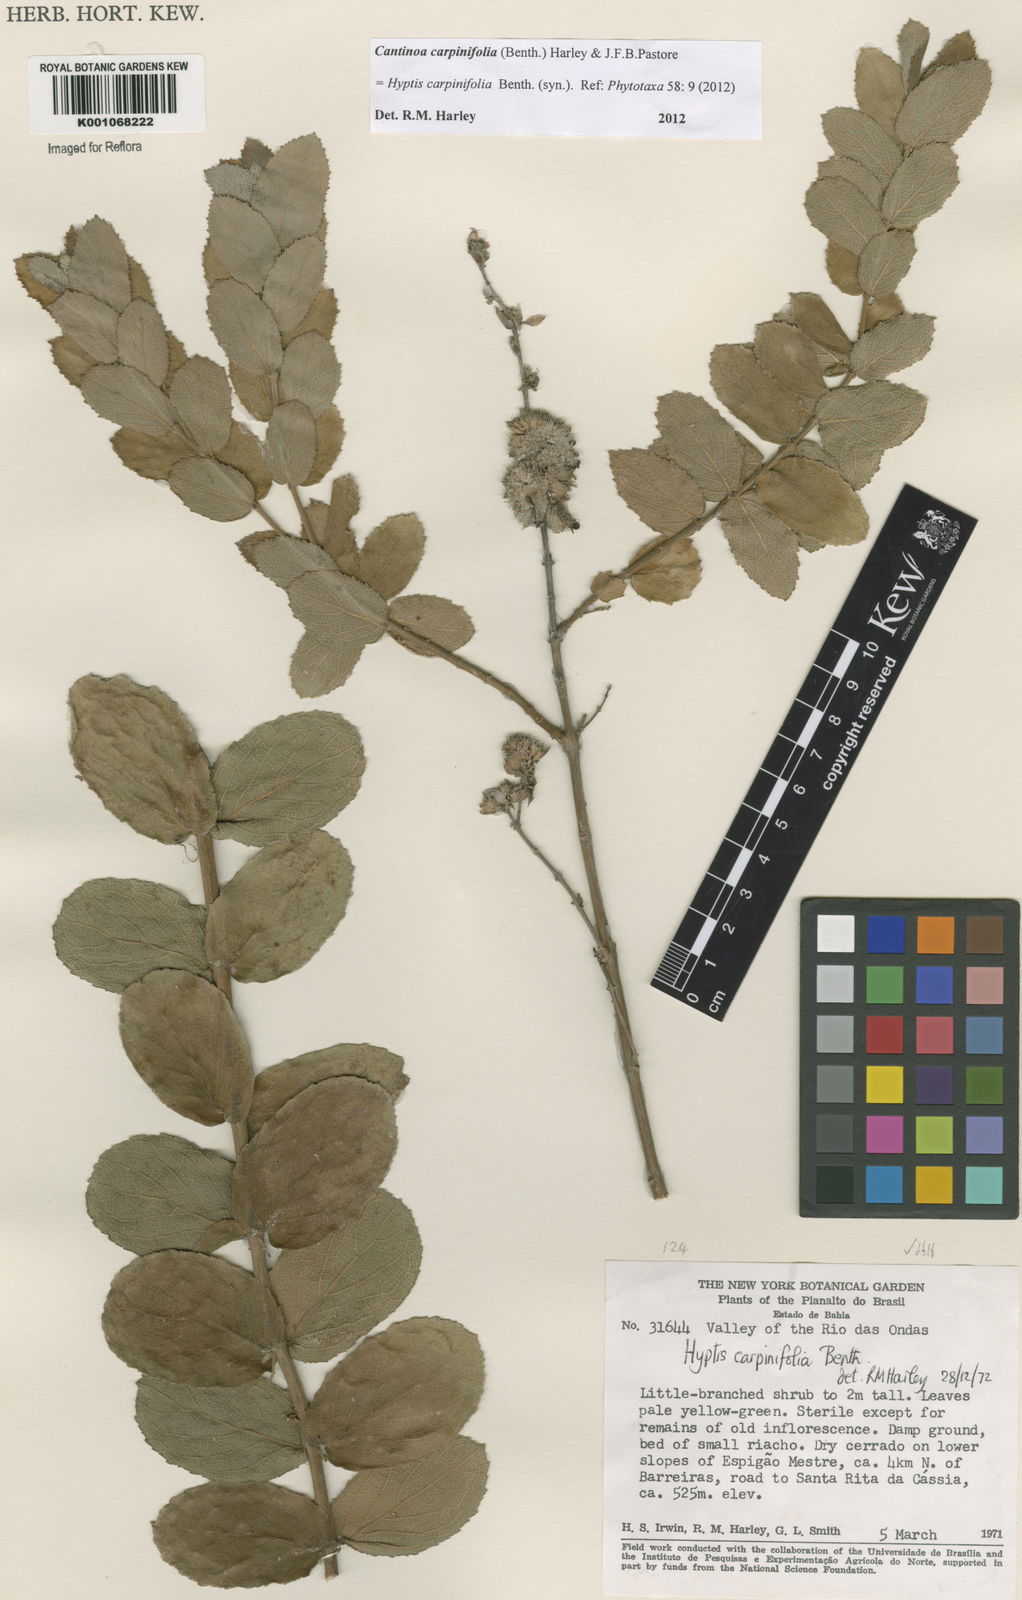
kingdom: Plantae
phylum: Tracheophyta
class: Magnoliopsida
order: Lamiales
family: Lamiaceae
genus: Cantinoa
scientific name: Cantinoa carpinifolia
